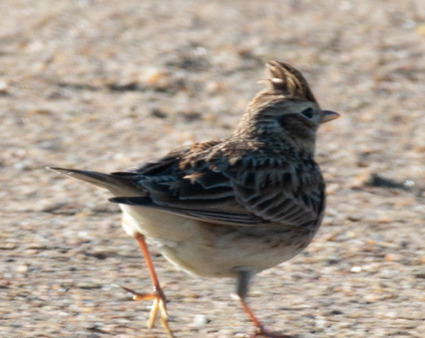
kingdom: Animalia
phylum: Chordata
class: Aves
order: Passeriformes
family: Alaudidae
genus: Alauda
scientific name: Alauda arvensis
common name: Sanglærke
